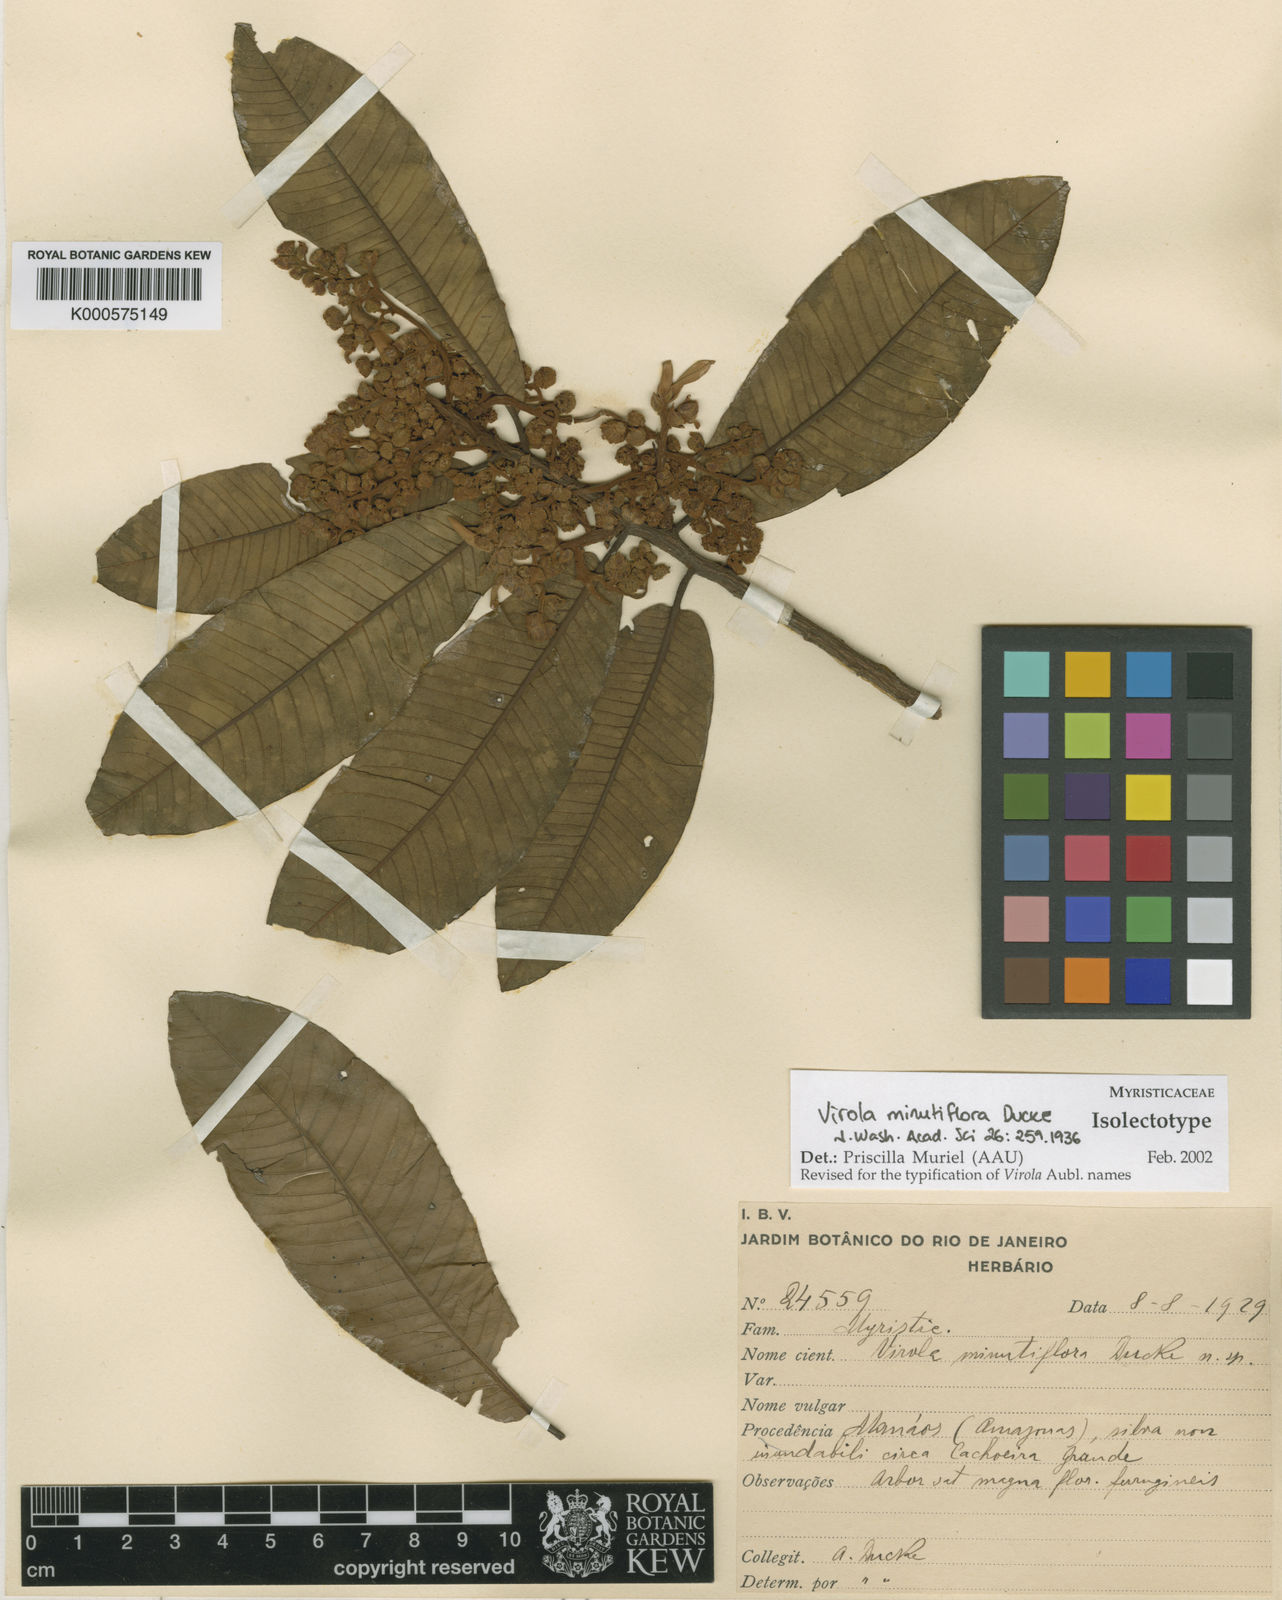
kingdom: Plantae
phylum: Tracheophyta
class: Magnoliopsida
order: Magnoliales
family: Myristicaceae
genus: Virola
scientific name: Virola minutiflora
